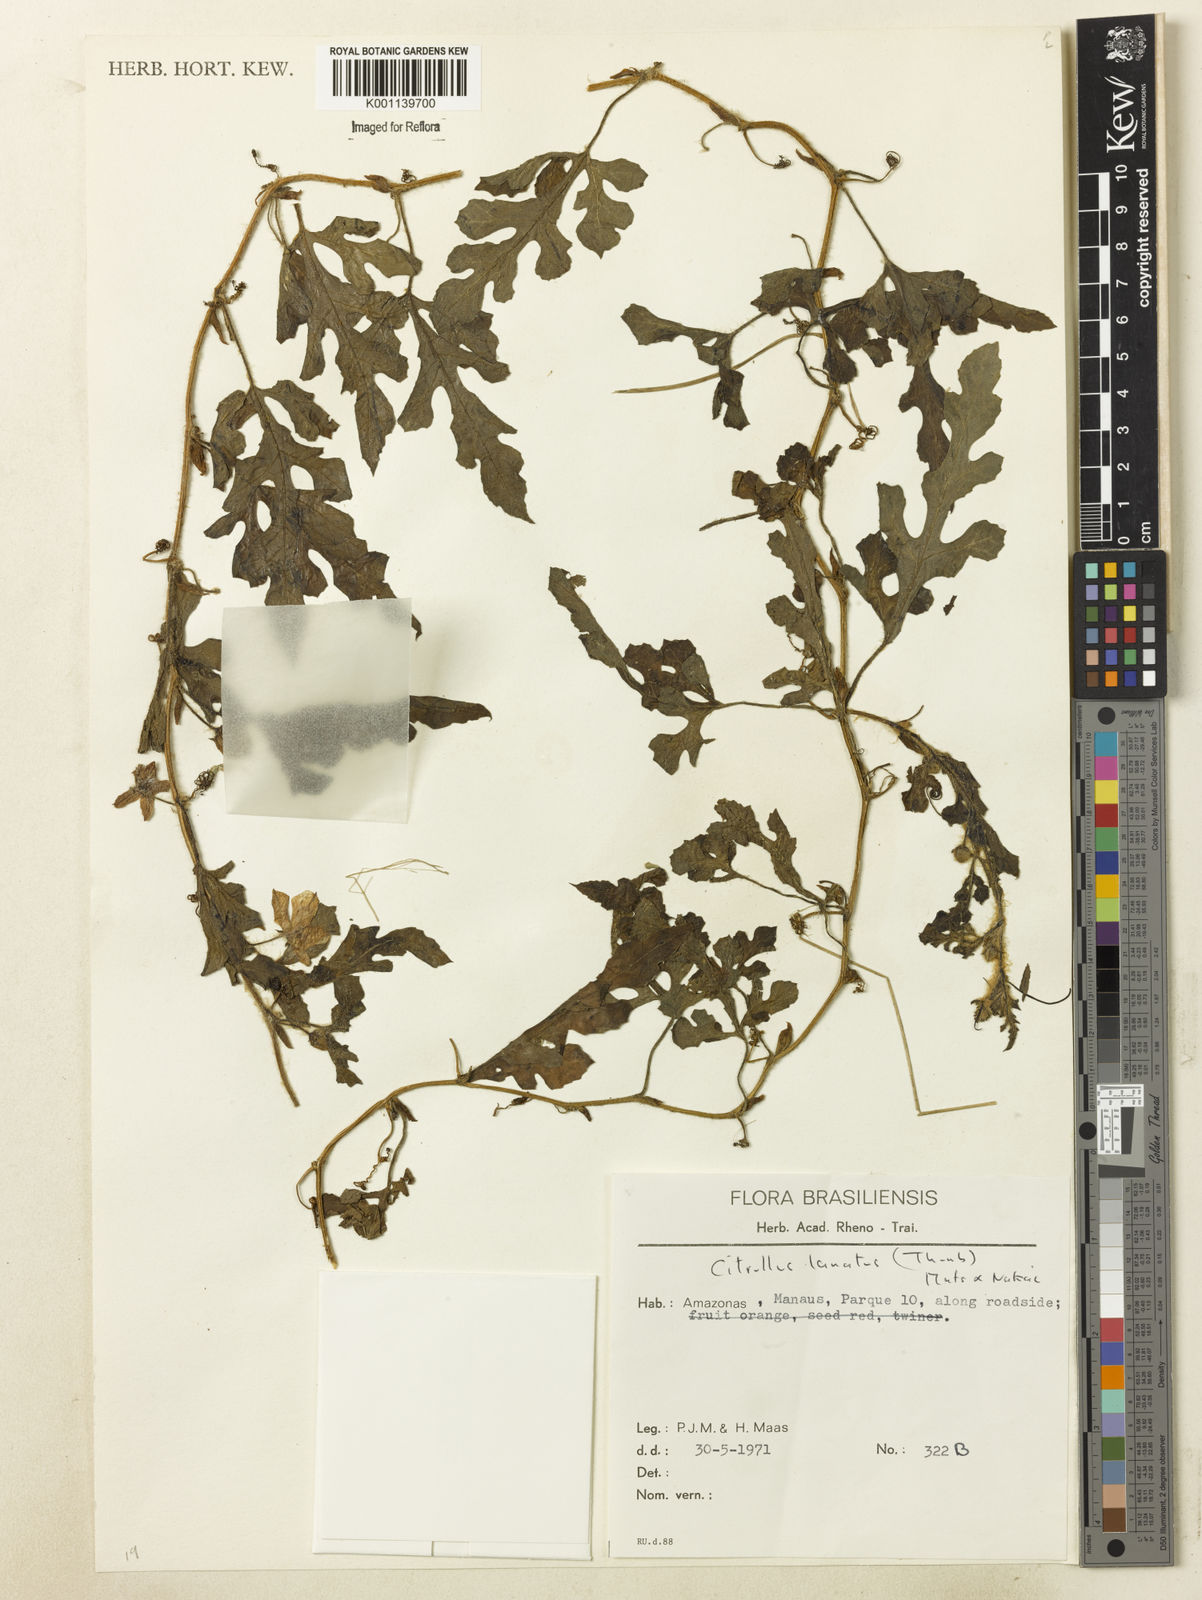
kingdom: Plantae
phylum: Tracheophyta
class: Magnoliopsida
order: Cucurbitales
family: Cucurbitaceae
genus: Citrullus
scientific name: Citrullus lanatus
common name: Watermelon
